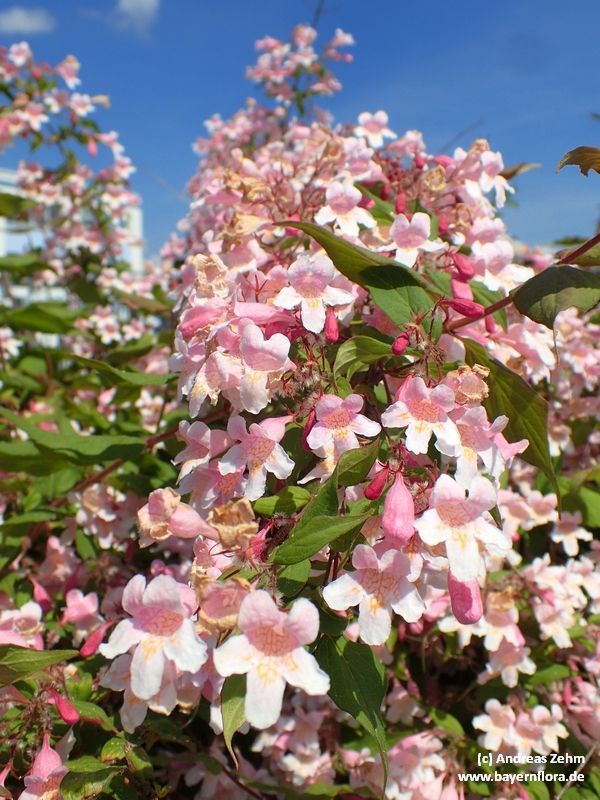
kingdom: Plantae
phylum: Tracheophyta
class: Magnoliopsida
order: Dipsacales
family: Caprifoliaceae
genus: Kolkwitzia
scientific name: Kolkwitzia amabilis
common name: Beautybush
